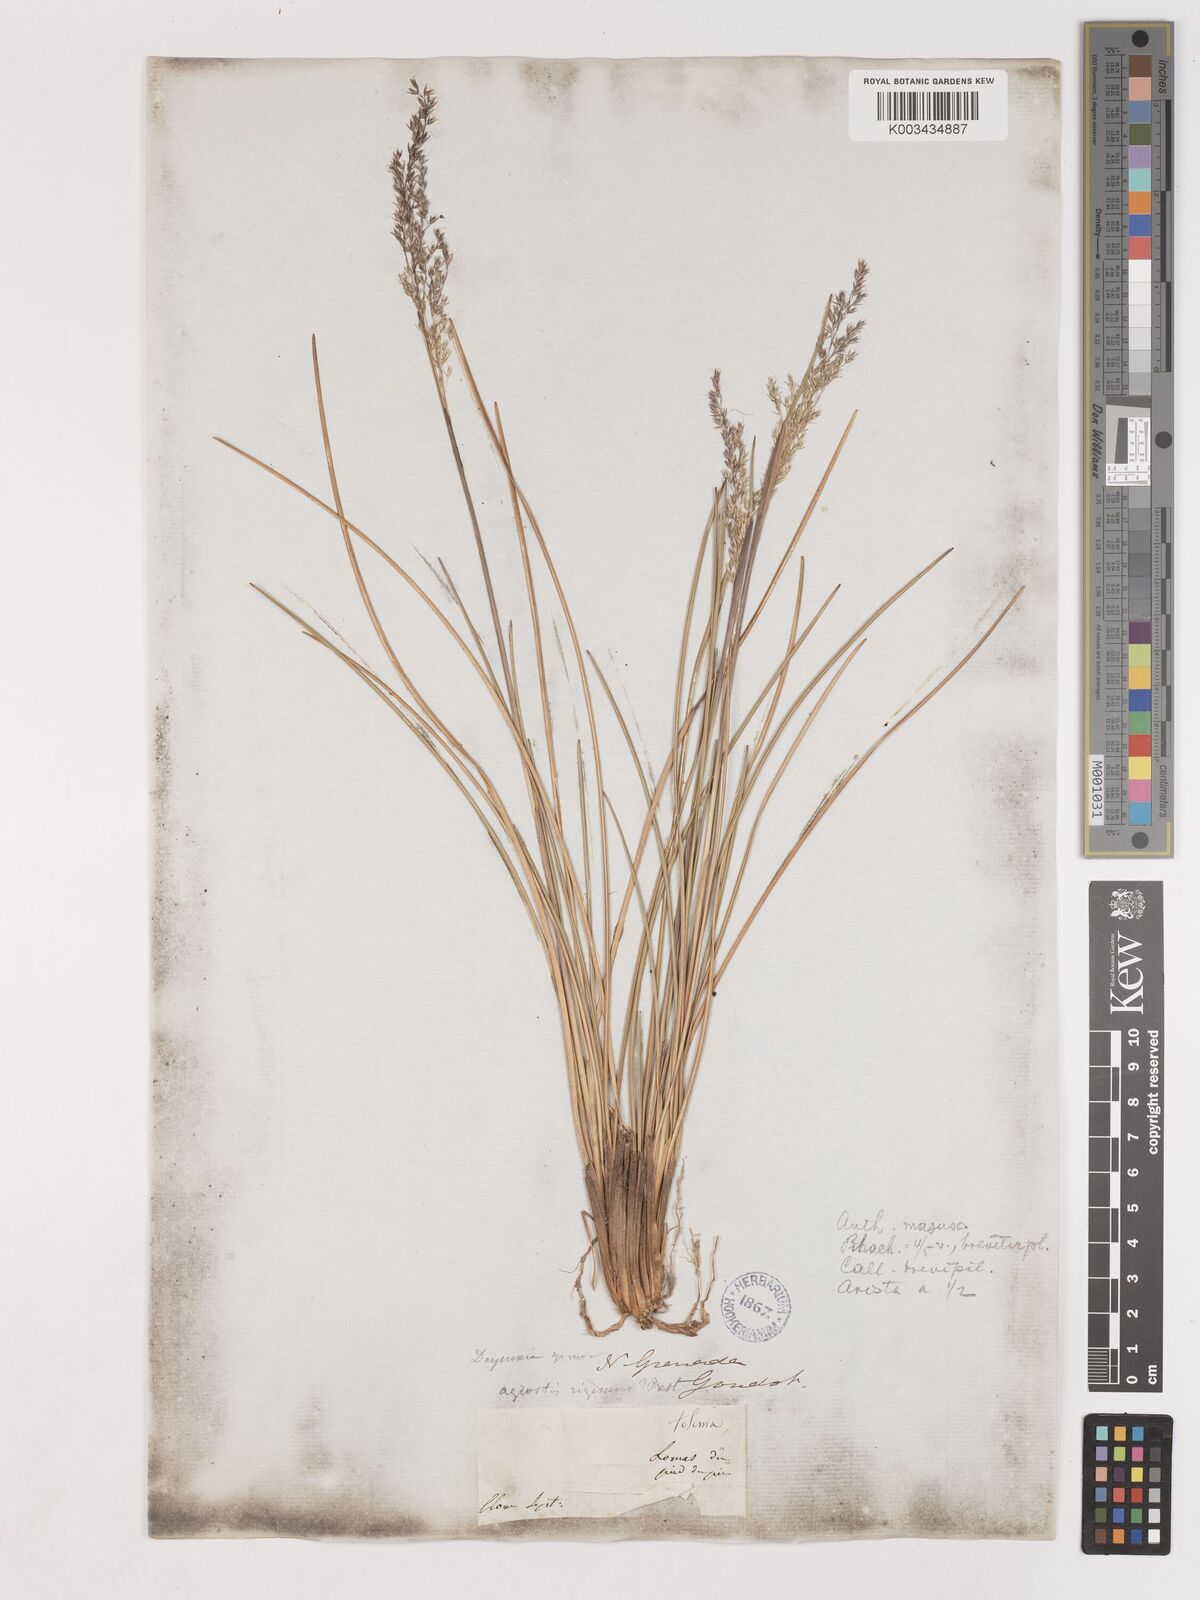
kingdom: Plantae
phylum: Tracheophyta
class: Liliopsida
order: Poales
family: Poaceae
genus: Calamagrostis
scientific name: Calamagrostis spruceana
